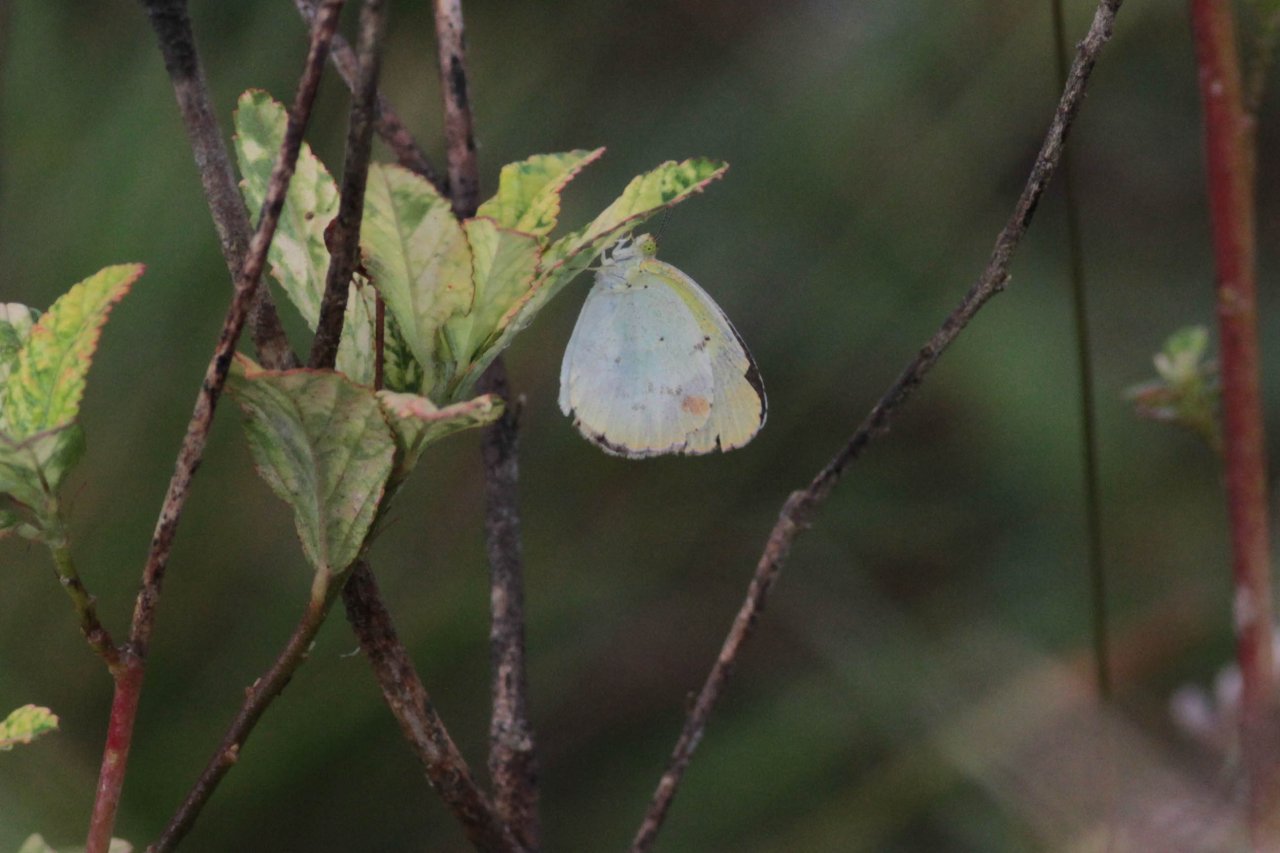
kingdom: Animalia
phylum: Arthropoda
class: Insecta
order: Lepidoptera
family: Pieridae
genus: Pyrisitia
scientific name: Pyrisitia lisa
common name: Little Yellow
